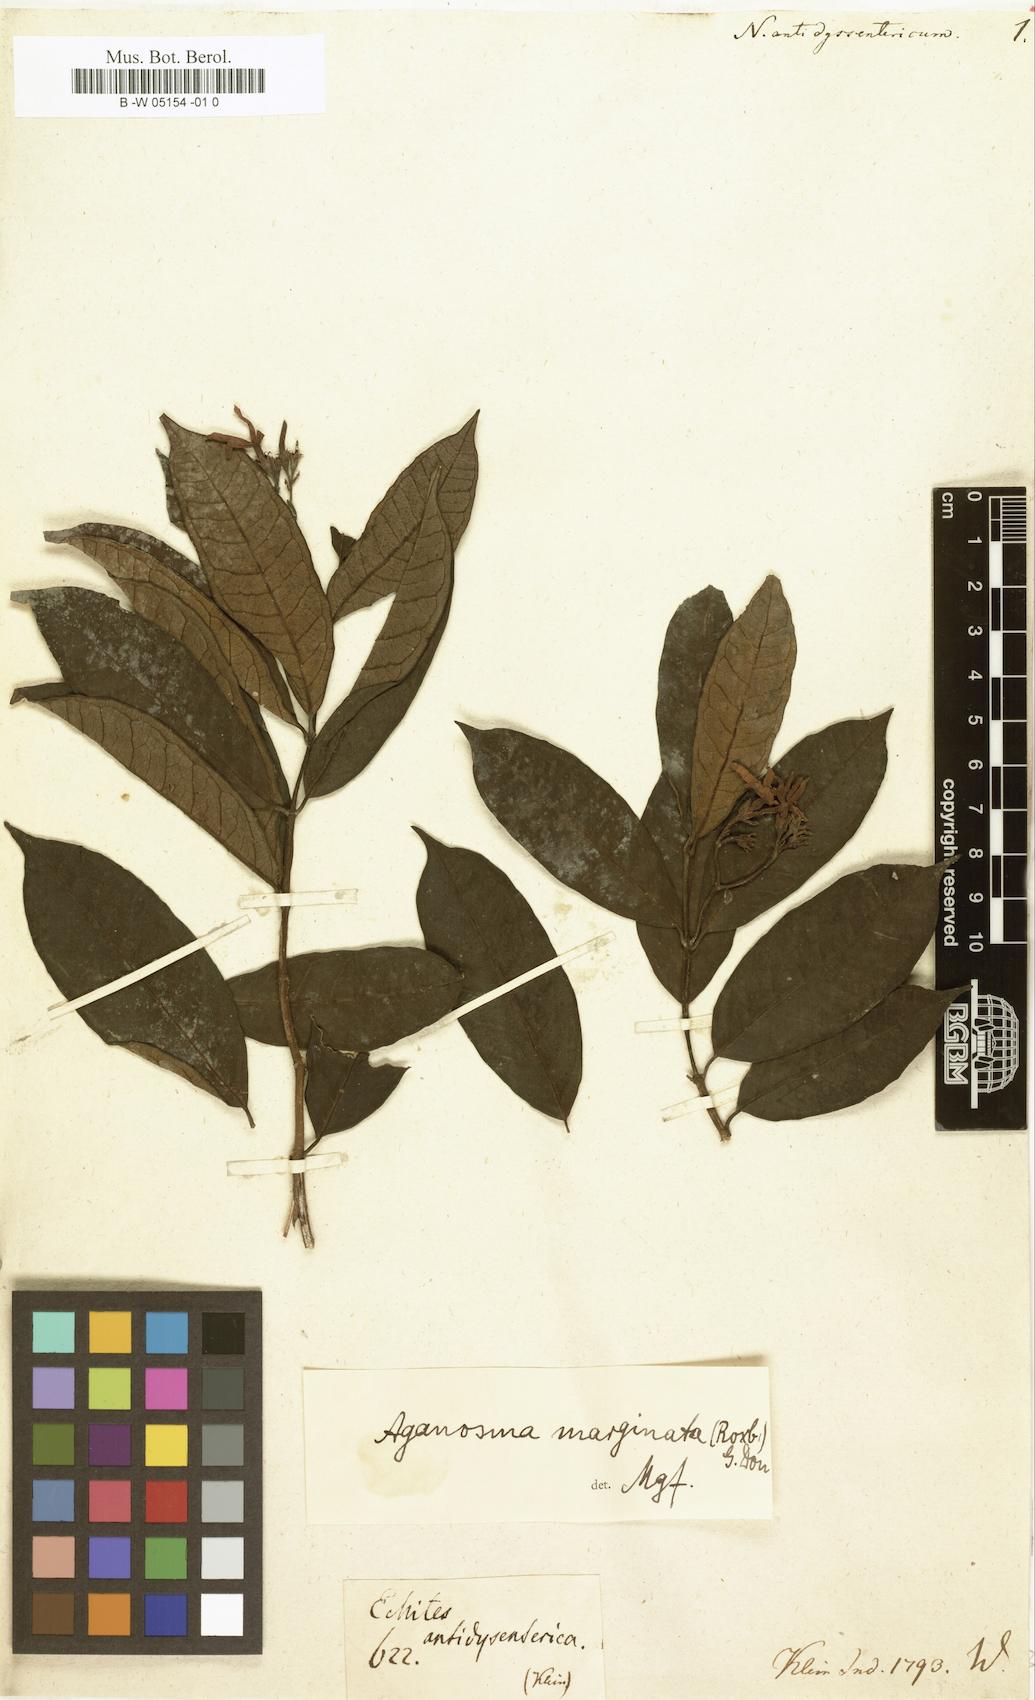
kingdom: Plantae
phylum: Tracheophyta
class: Magnoliopsida
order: Gentianales
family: Apocynaceae
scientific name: Apocynaceae
